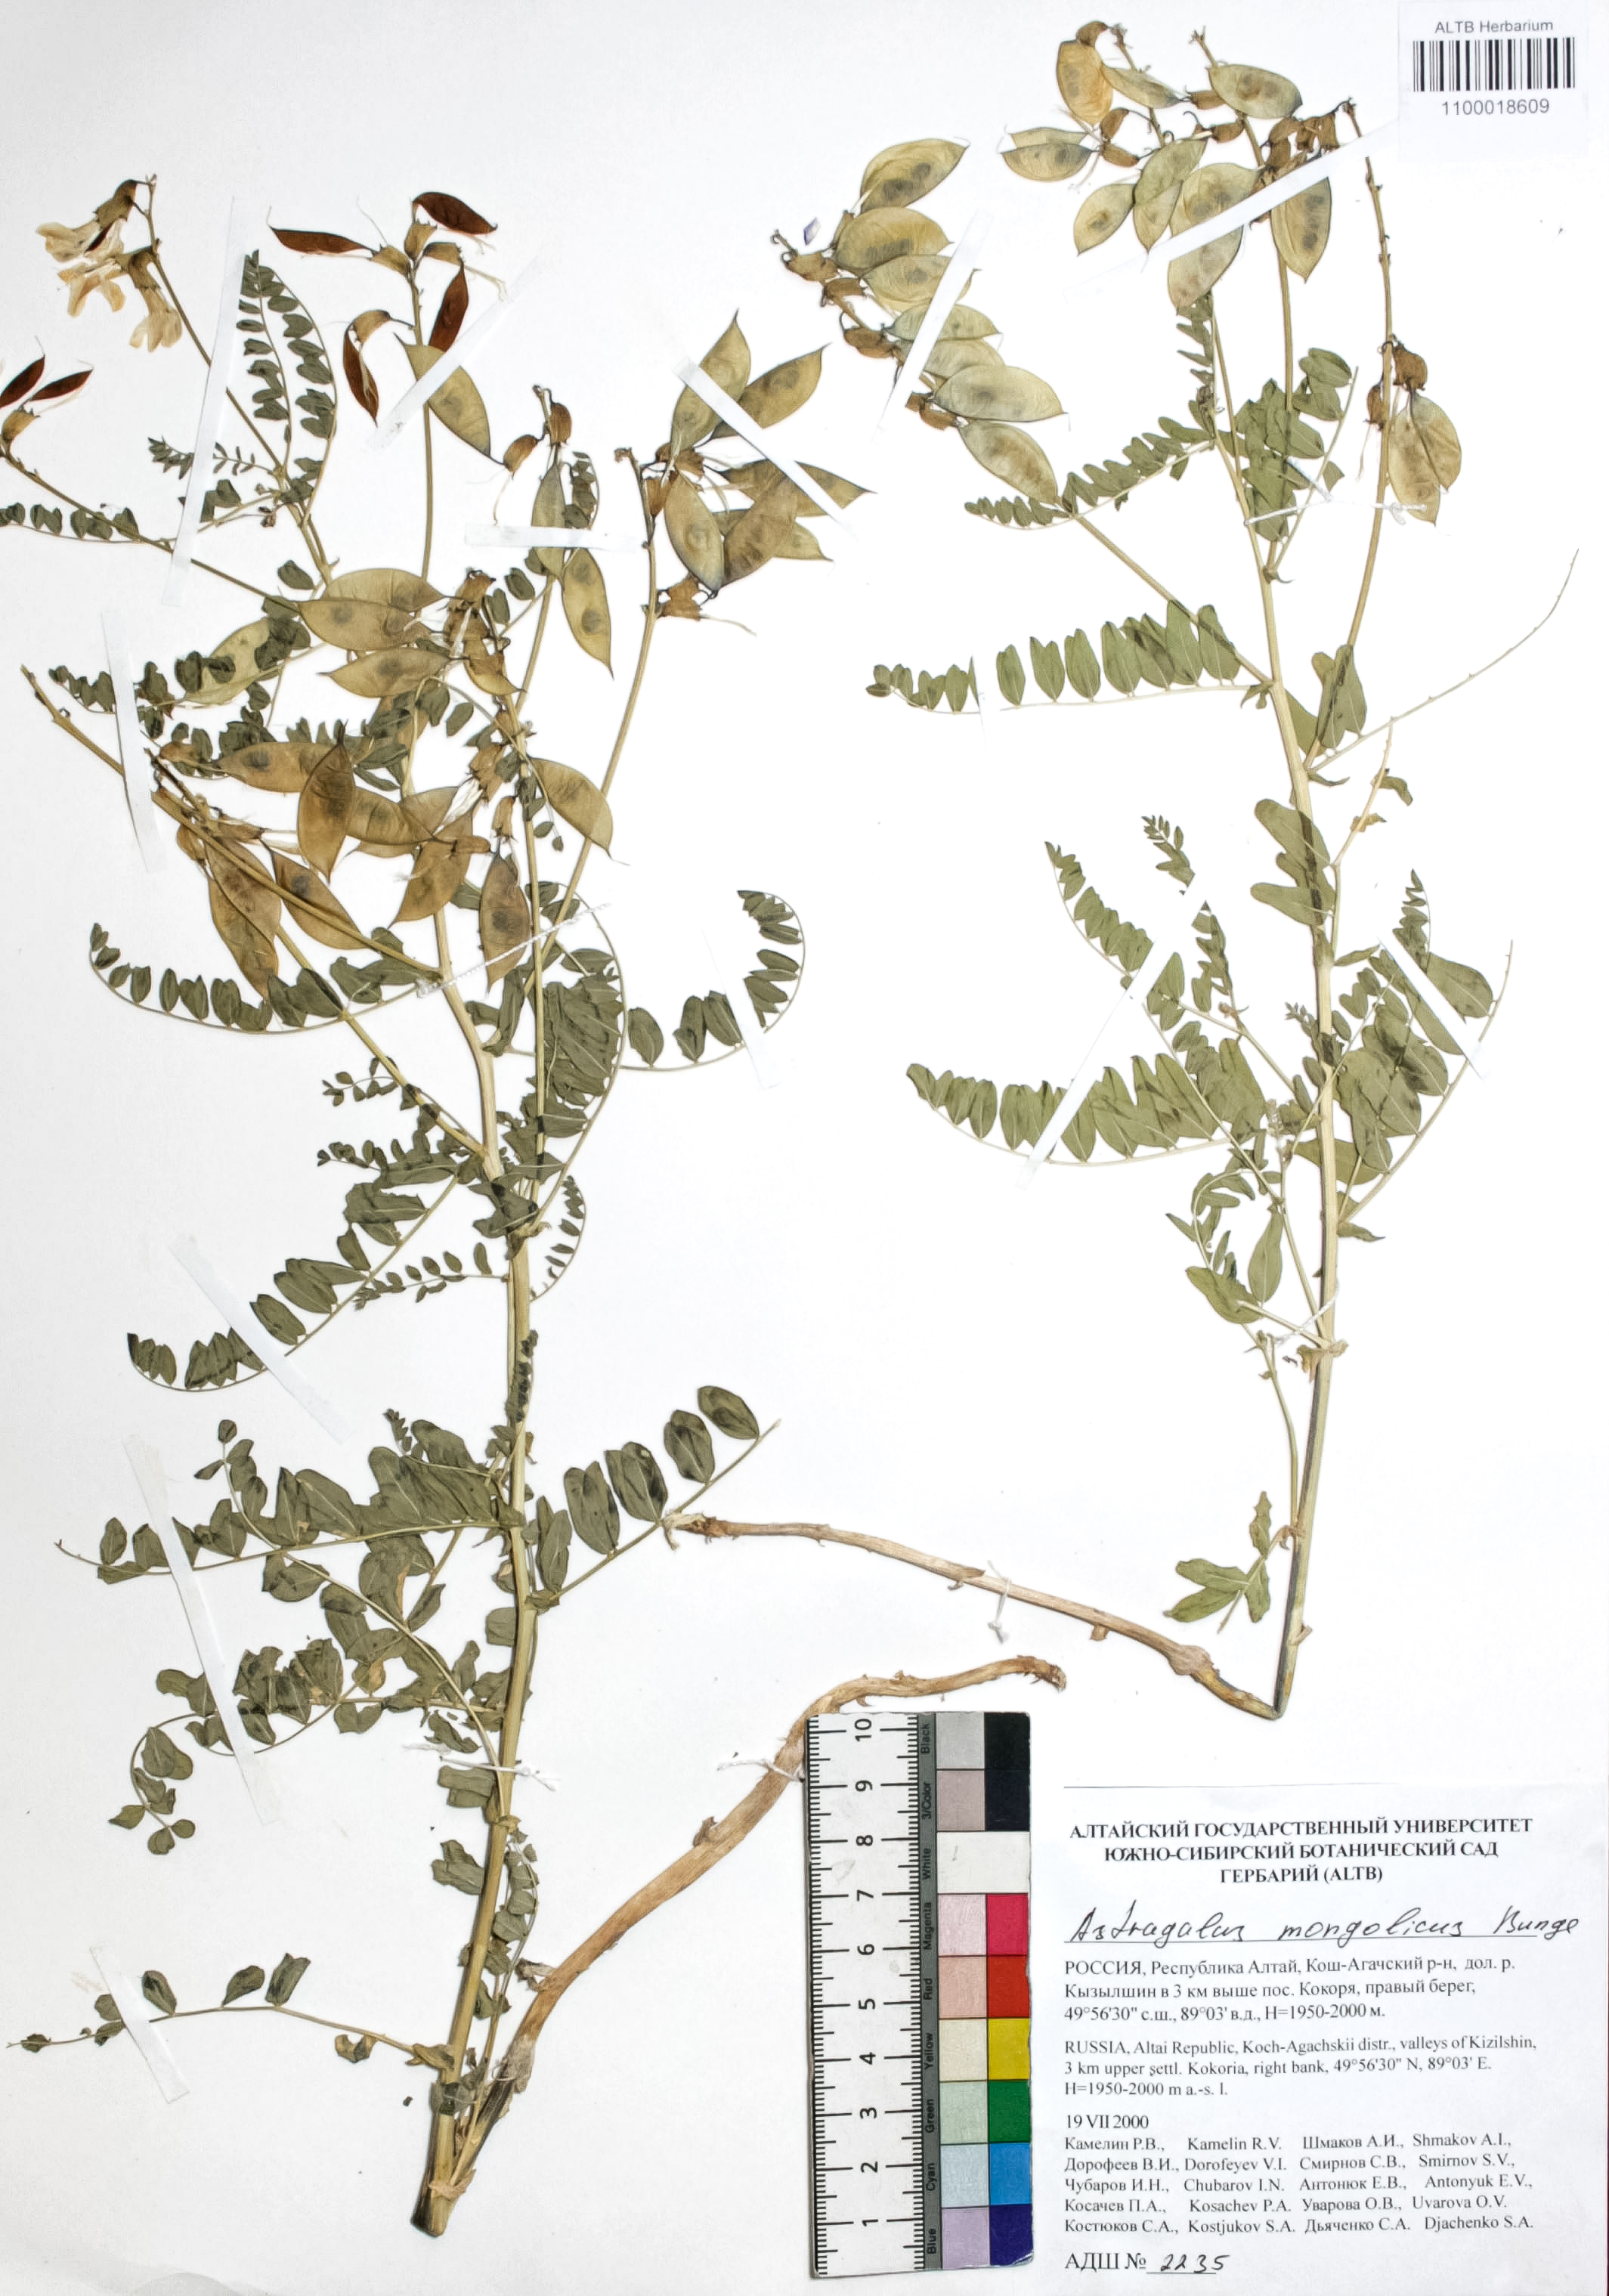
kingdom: Plantae
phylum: Tracheophyta
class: Magnoliopsida
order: Fabales
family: Fabaceae
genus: Astragalus
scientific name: Astragalus mongolicus
